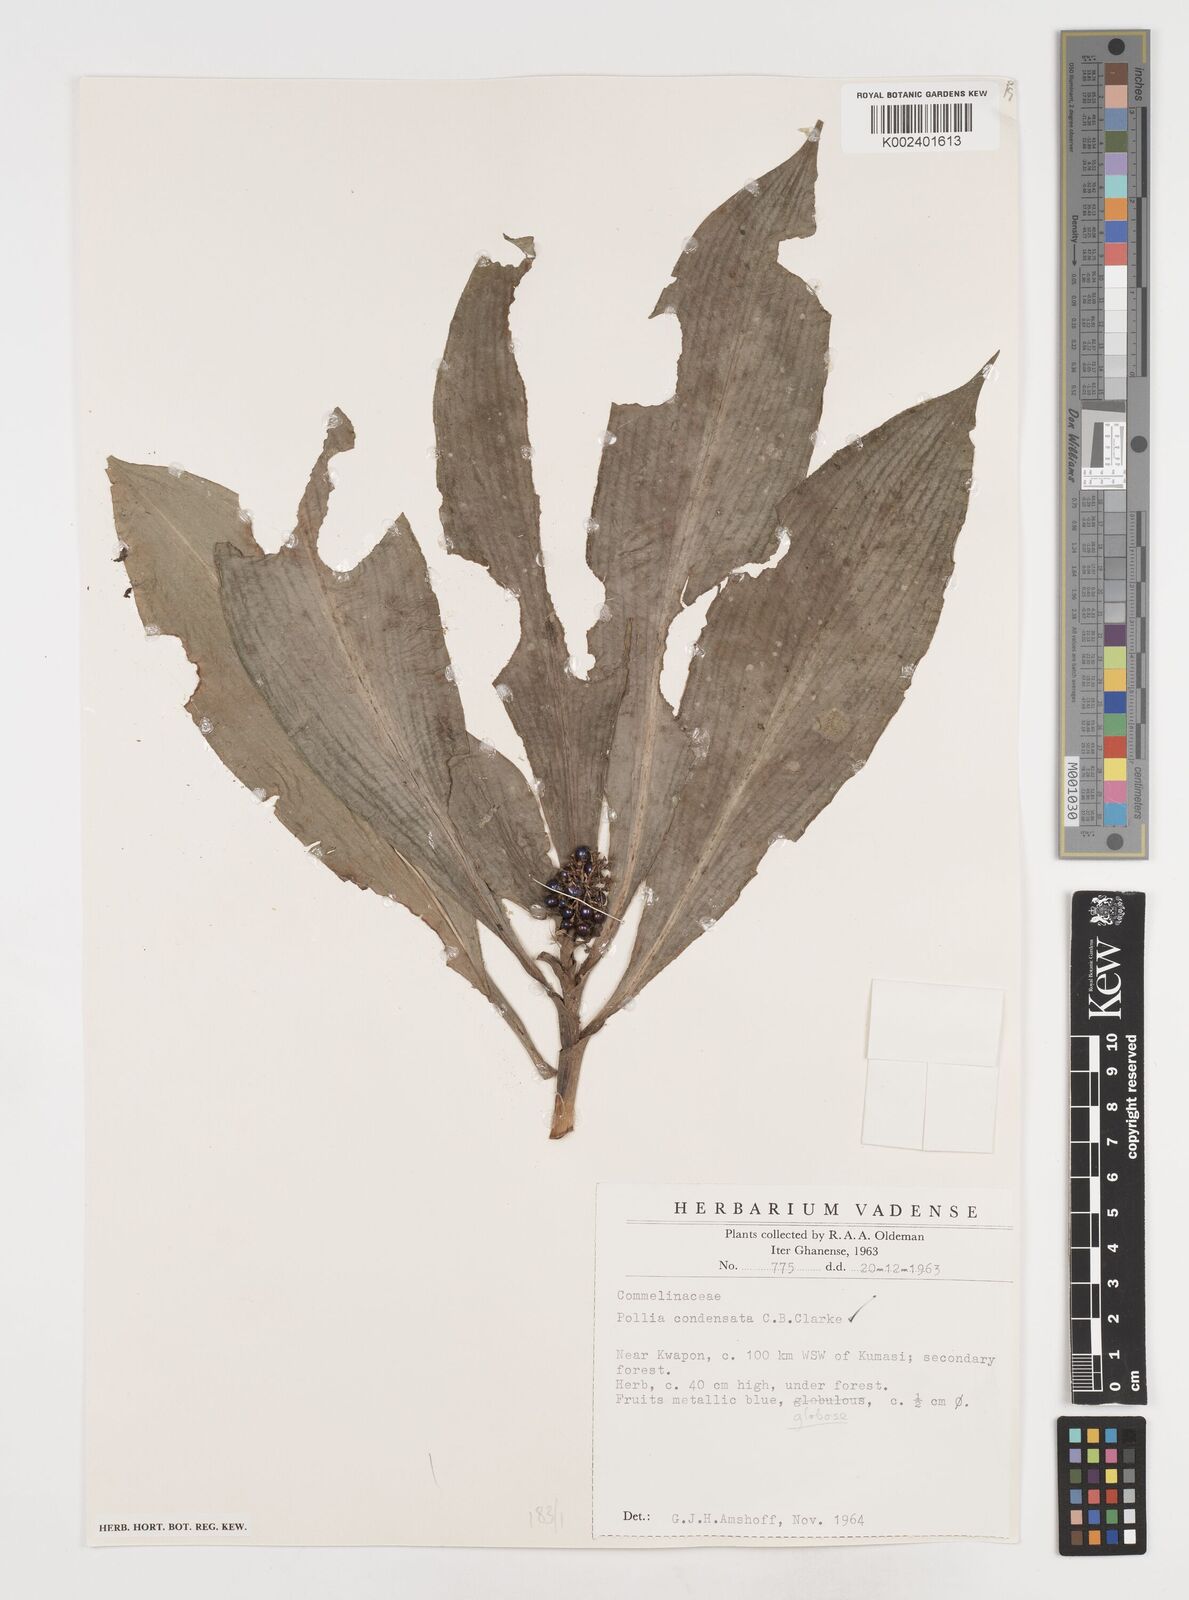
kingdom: Plantae
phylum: Tracheophyta
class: Liliopsida
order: Commelinales
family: Commelinaceae
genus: Pollia
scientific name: Pollia condensata
